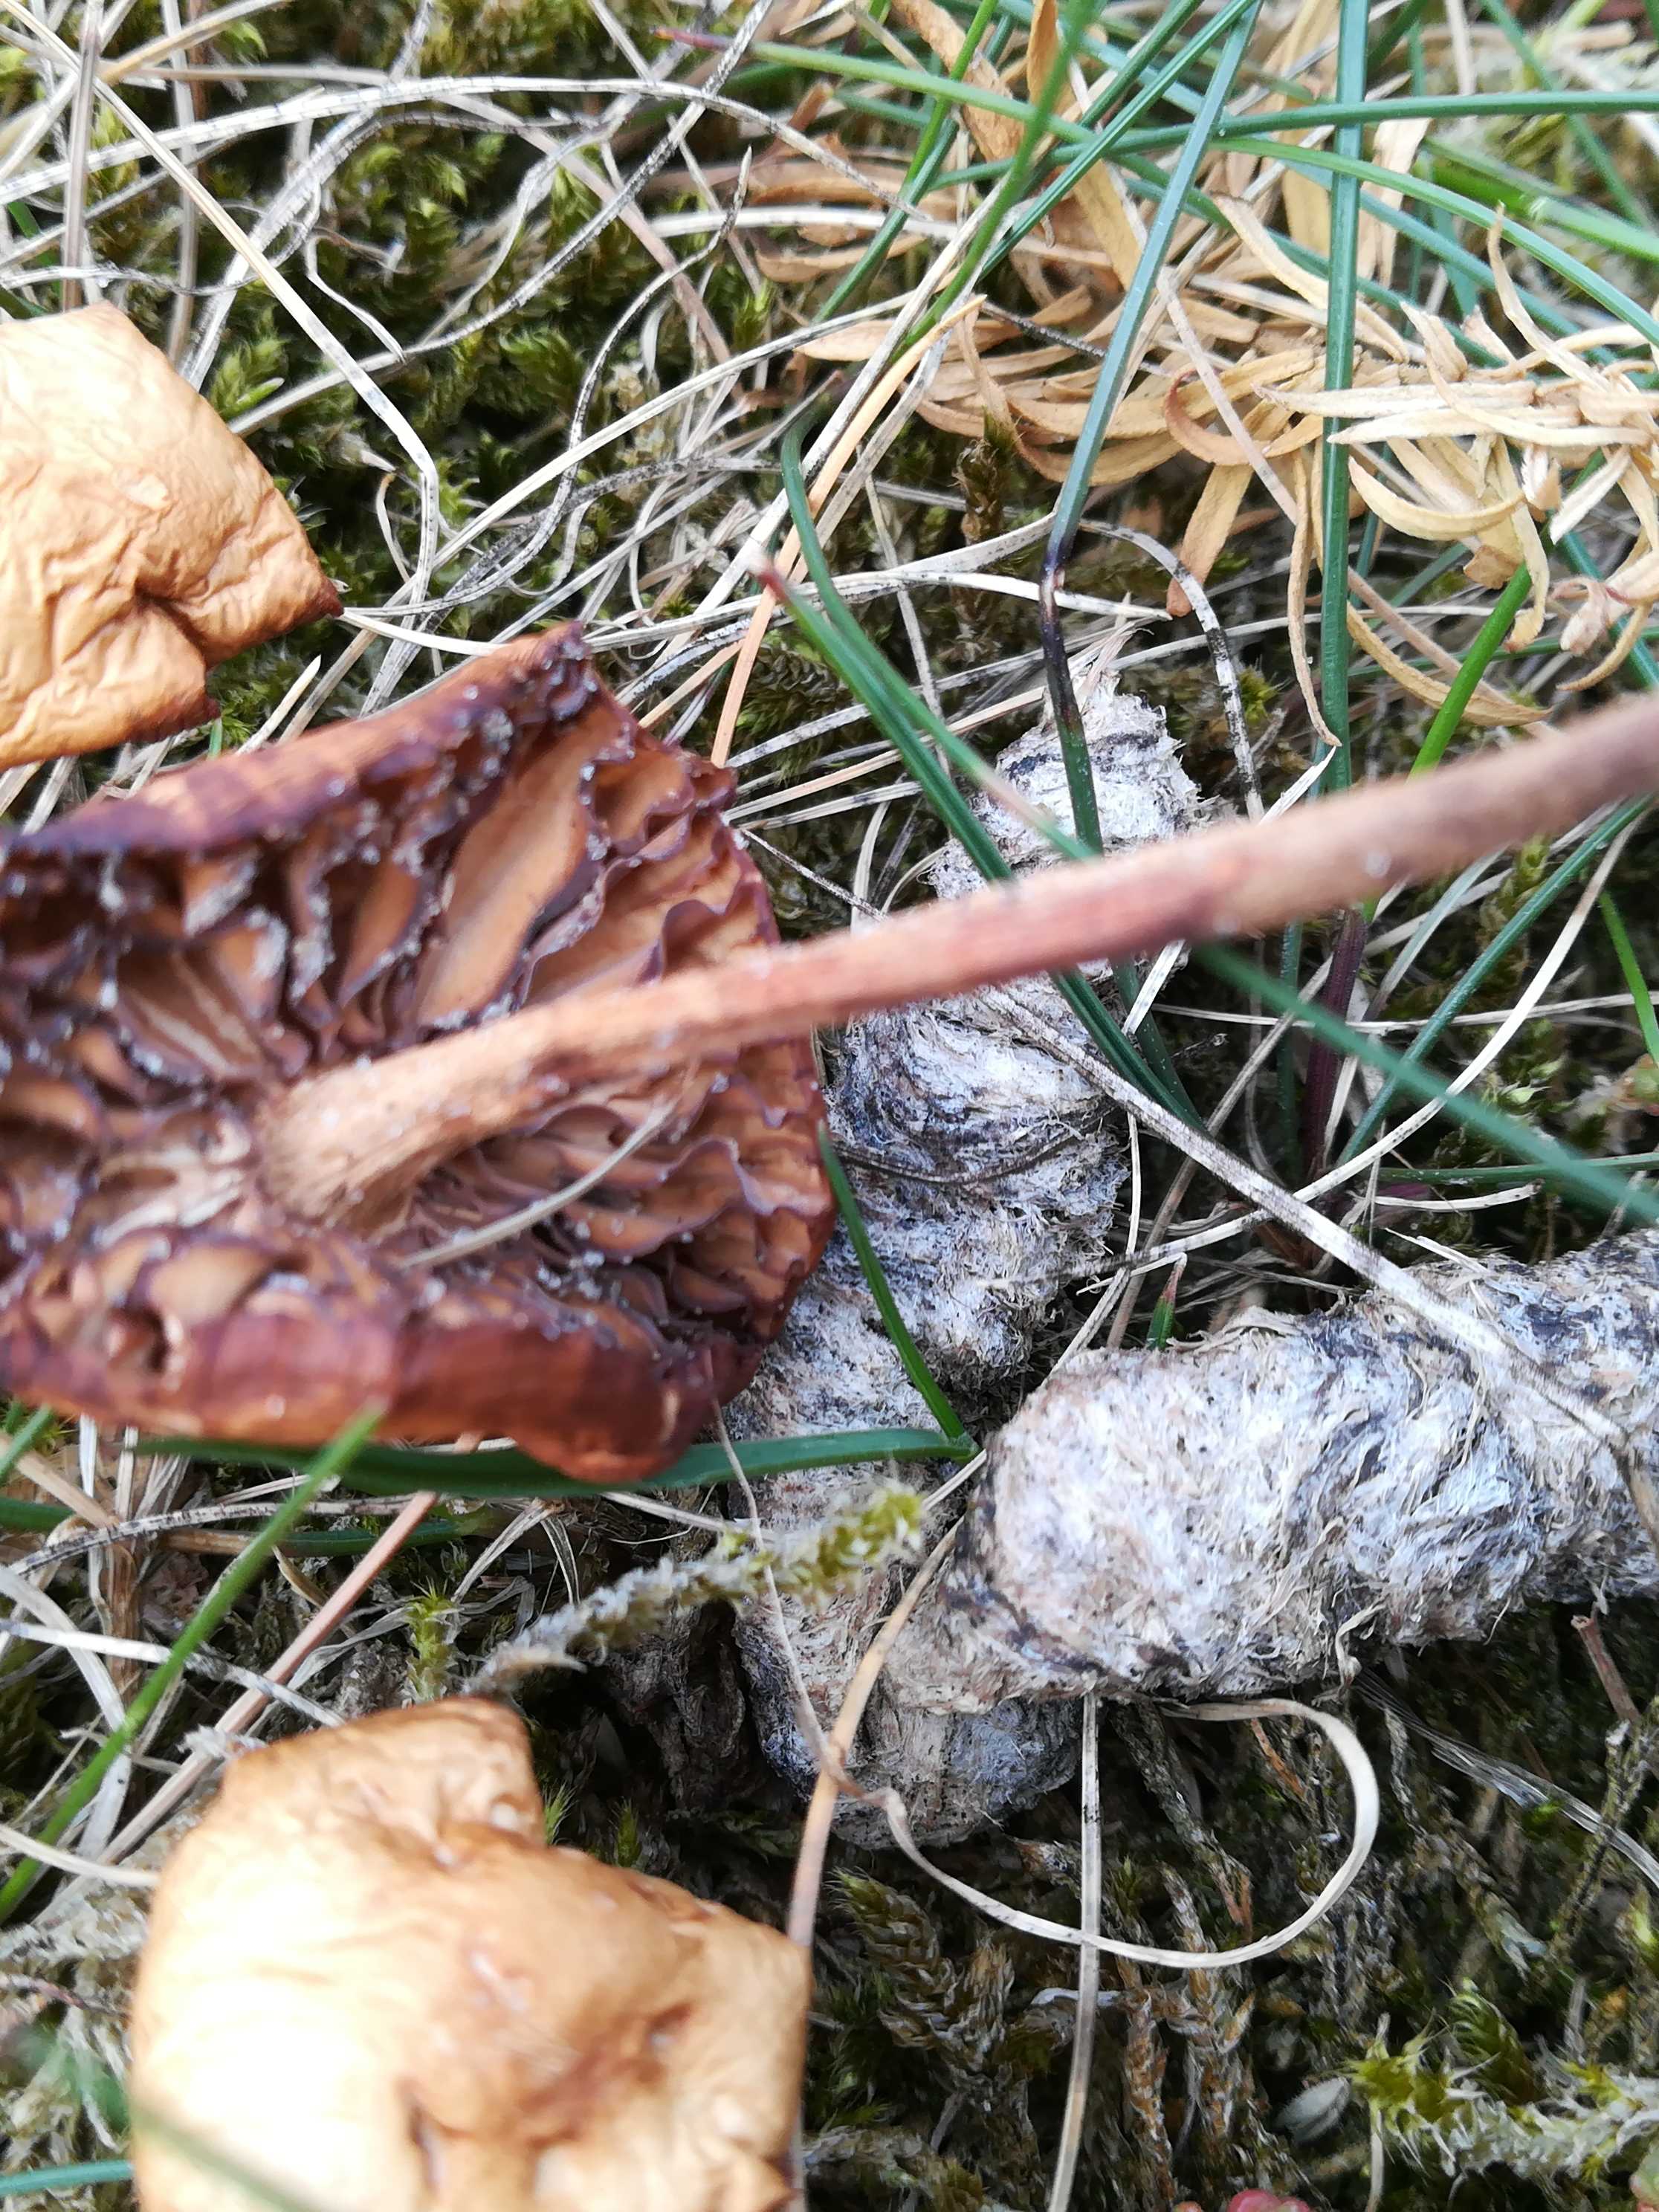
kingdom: Fungi
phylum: Basidiomycota
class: Agaricomycetes
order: Agaricales
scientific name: Agaricales
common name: champignonordenen
